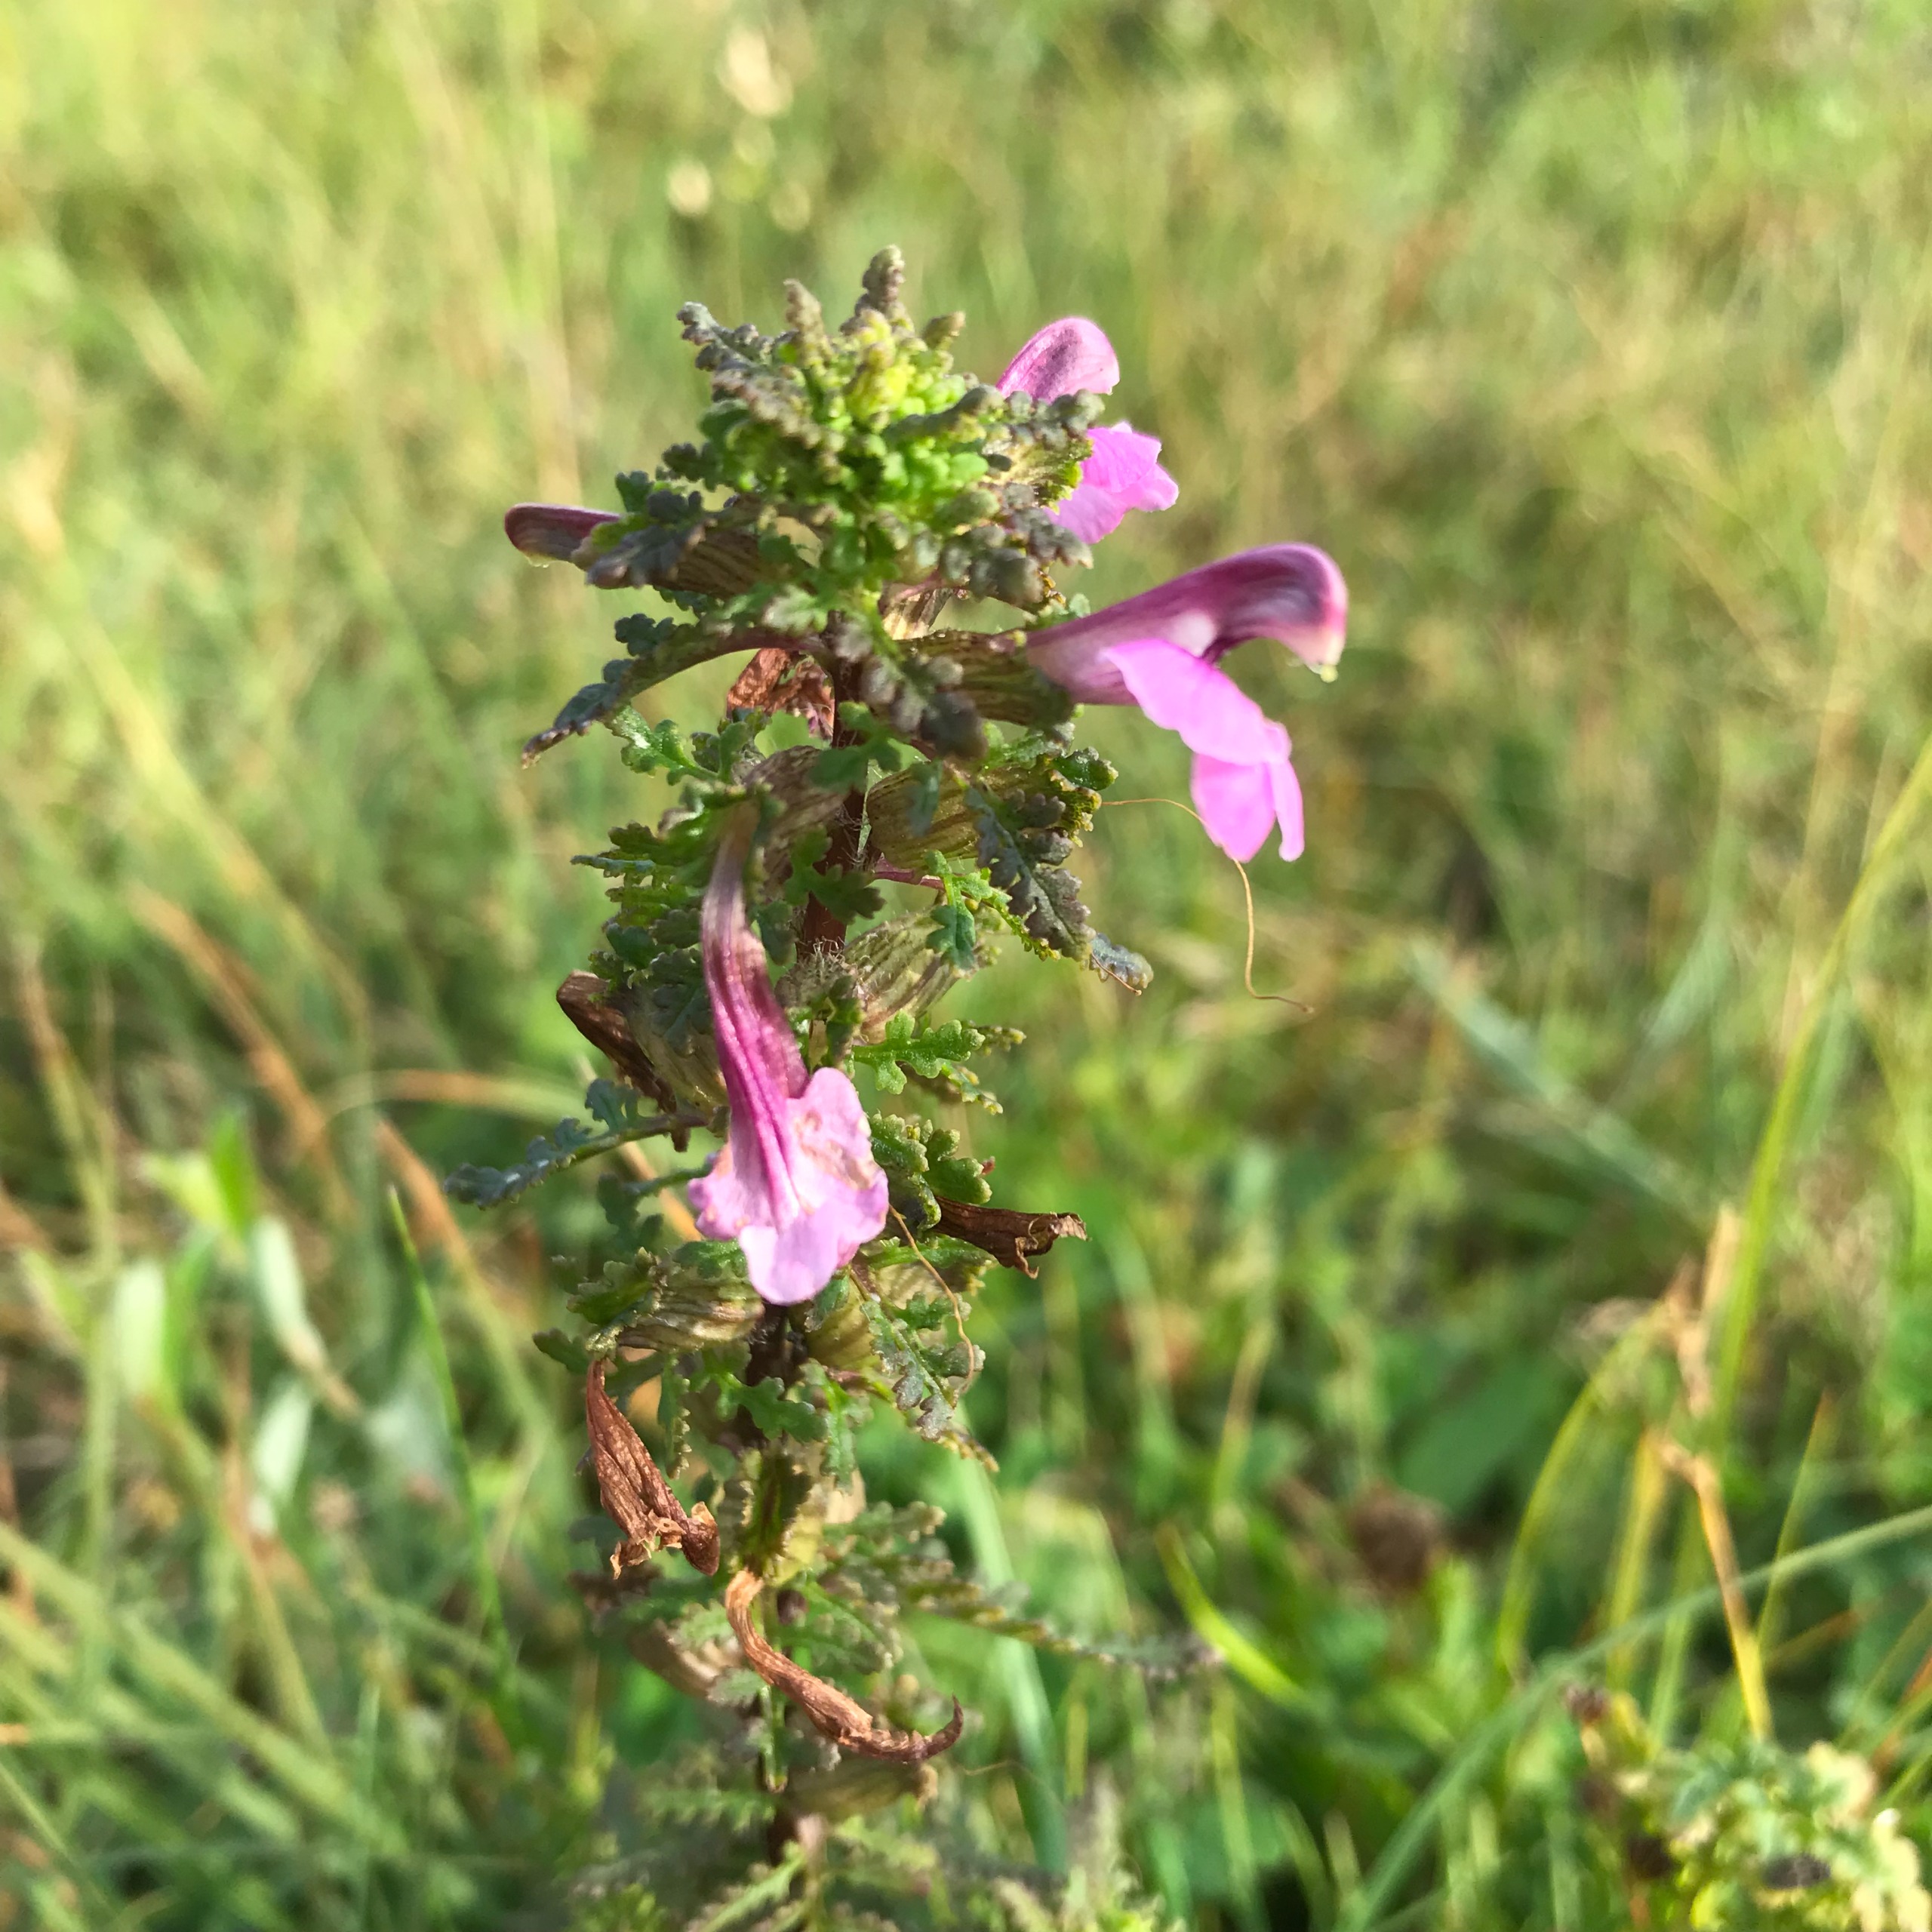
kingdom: Plantae
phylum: Tracheophyta
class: Magnoliopsida
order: Lamiales
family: Orobanchaceae
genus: Pedicularis
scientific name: Pedicularis palustris
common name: Eng-troldurt
